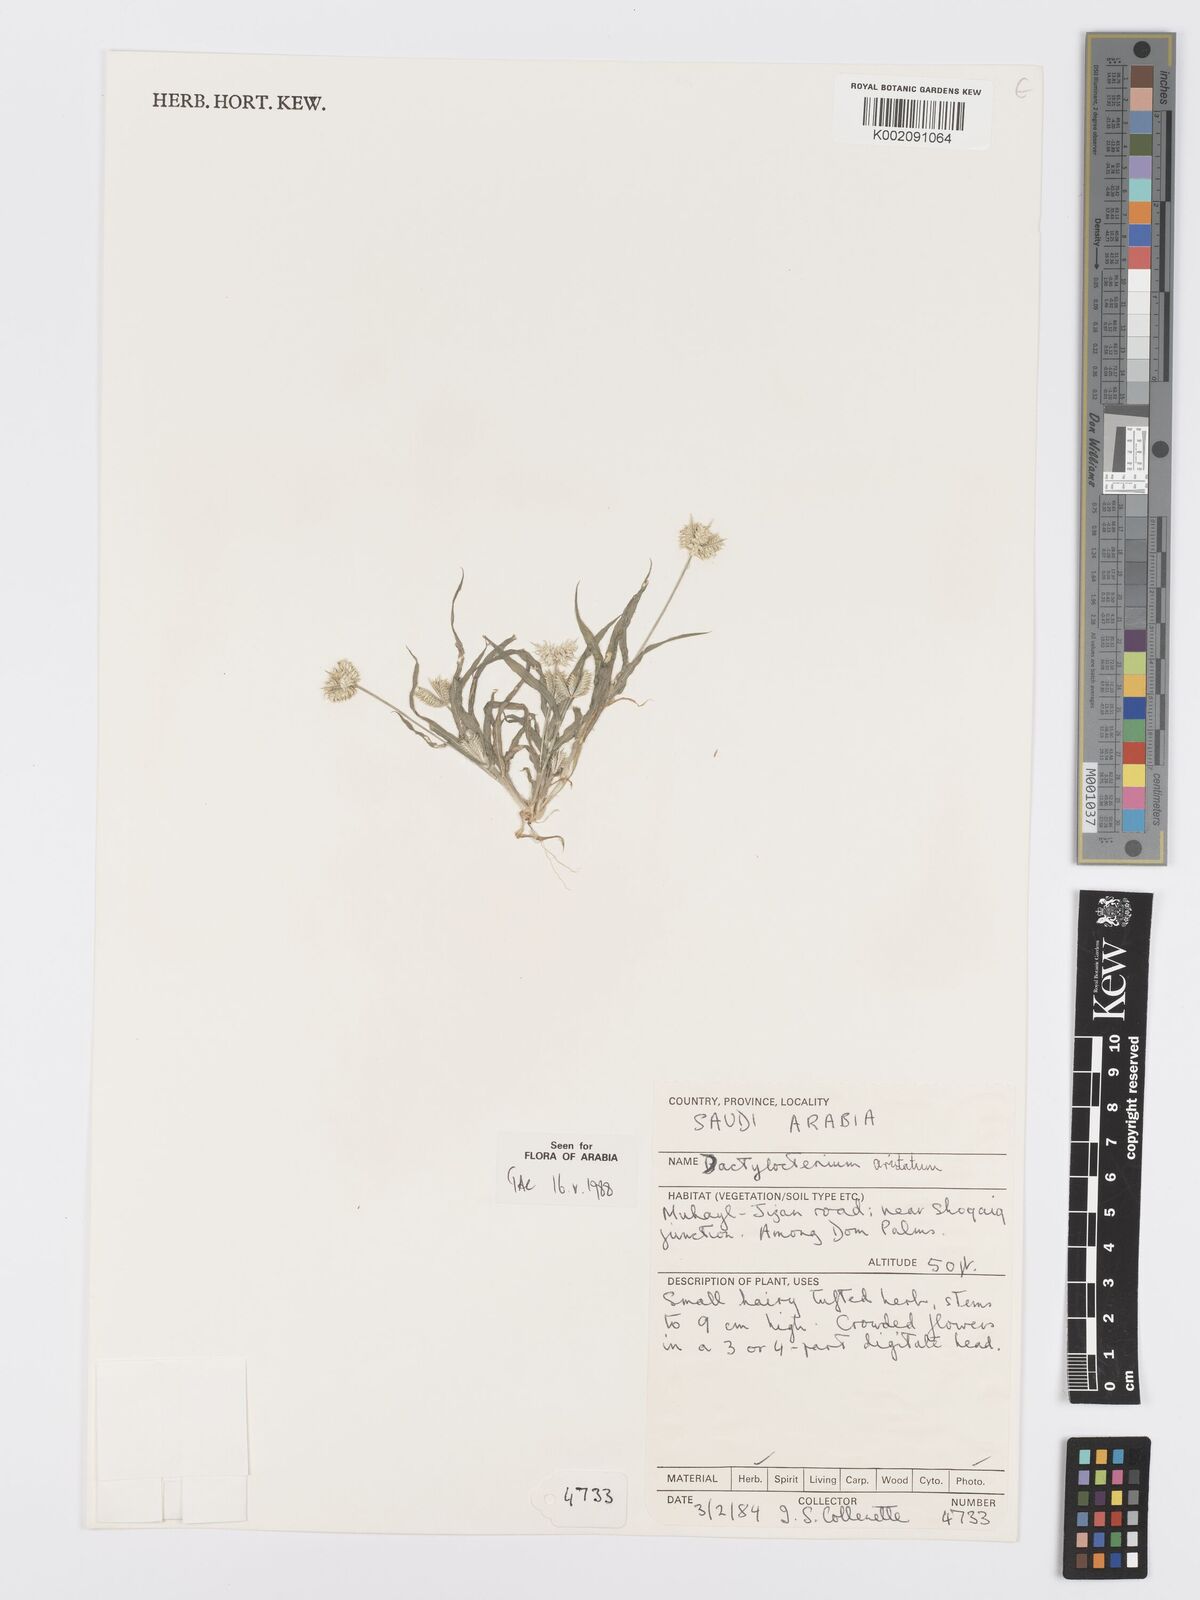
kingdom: Plantae
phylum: Tracheophyta
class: Liliopsida
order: Poales
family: Poaceae
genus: Dactyloctenium
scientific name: Dactyloctenium aristatum
